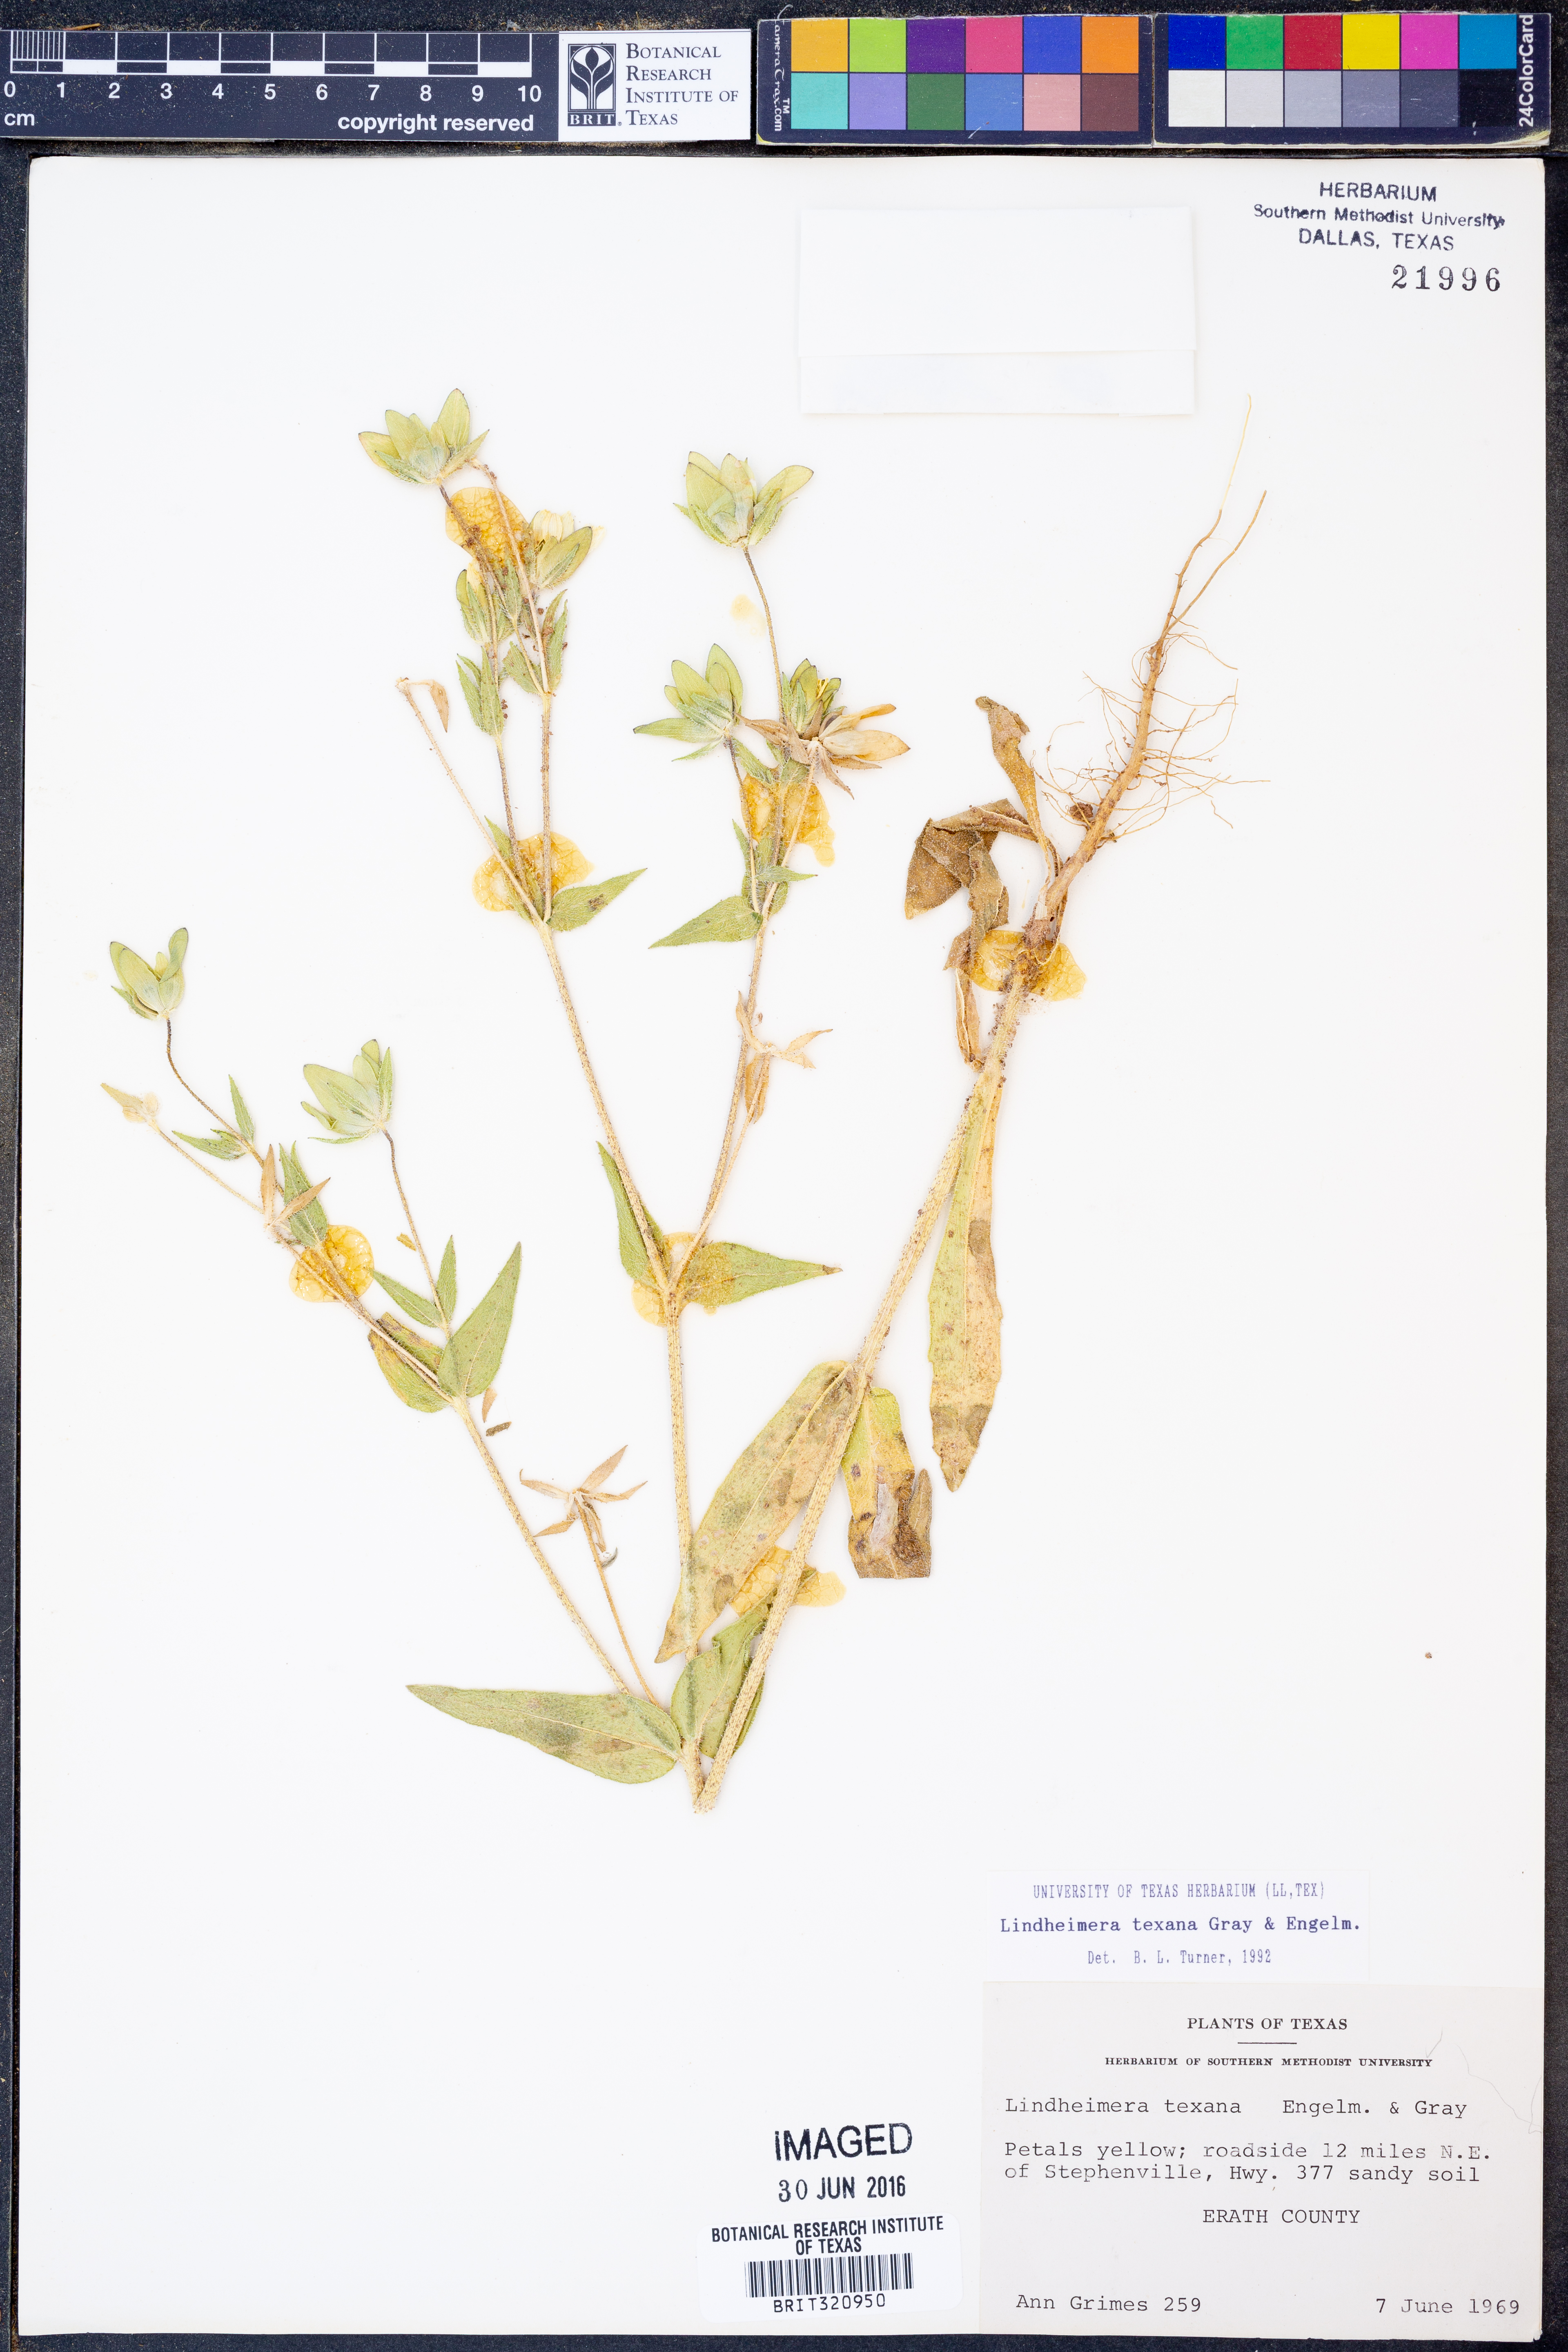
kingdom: Plantae
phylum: Tracheophyta
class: Magnoliopsida
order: Asterales
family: Asteraceae
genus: Lindheimera
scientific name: Lindheimera texana
